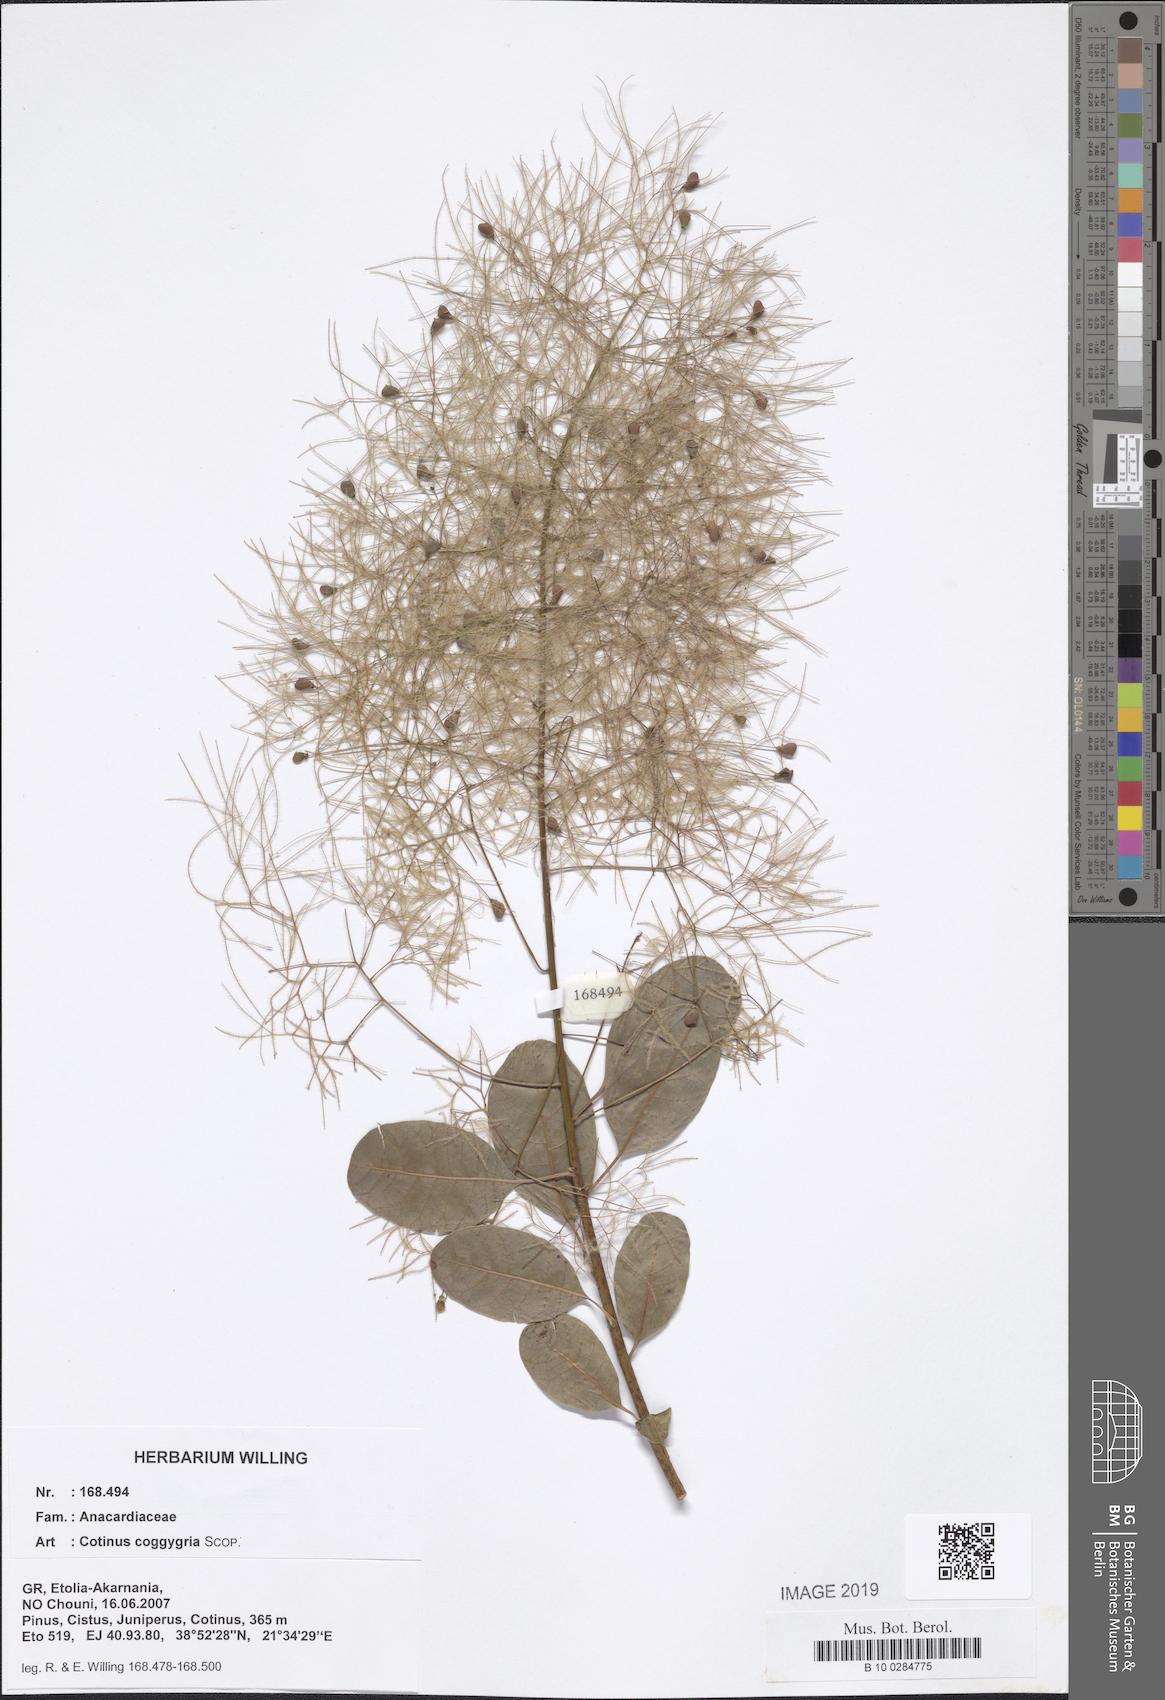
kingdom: Plantae
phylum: Tracheophyta
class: Magnoliopsida
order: Sapindales
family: Anacardiaceae
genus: Cotinus
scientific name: Cotinus coggygria
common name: Smoke-tree
